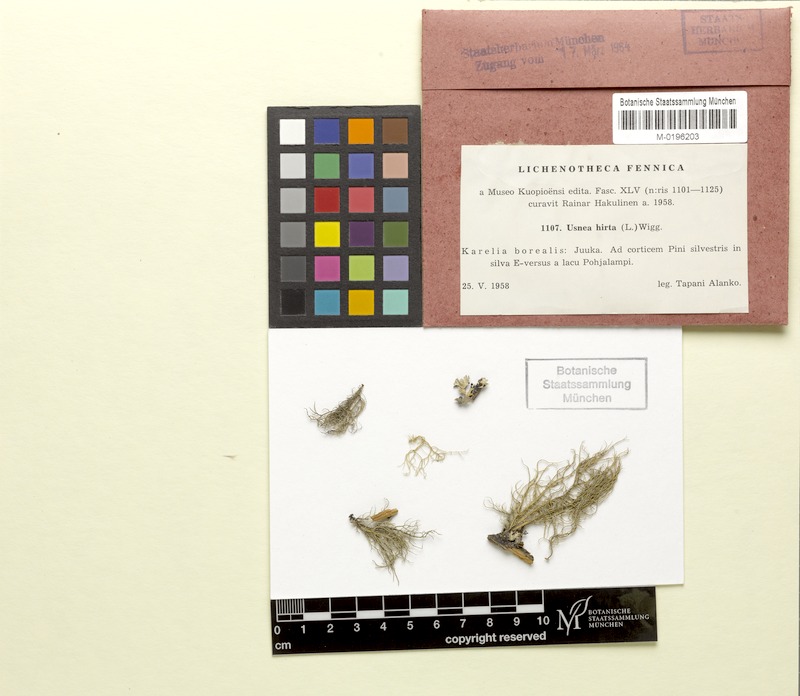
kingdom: Fungi
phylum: Ascomycota
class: Lecanoromycetes
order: Lecanorales
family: Parmeliaceae
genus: Usnea
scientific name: Usnea hirta
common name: Bristly beard lichen
